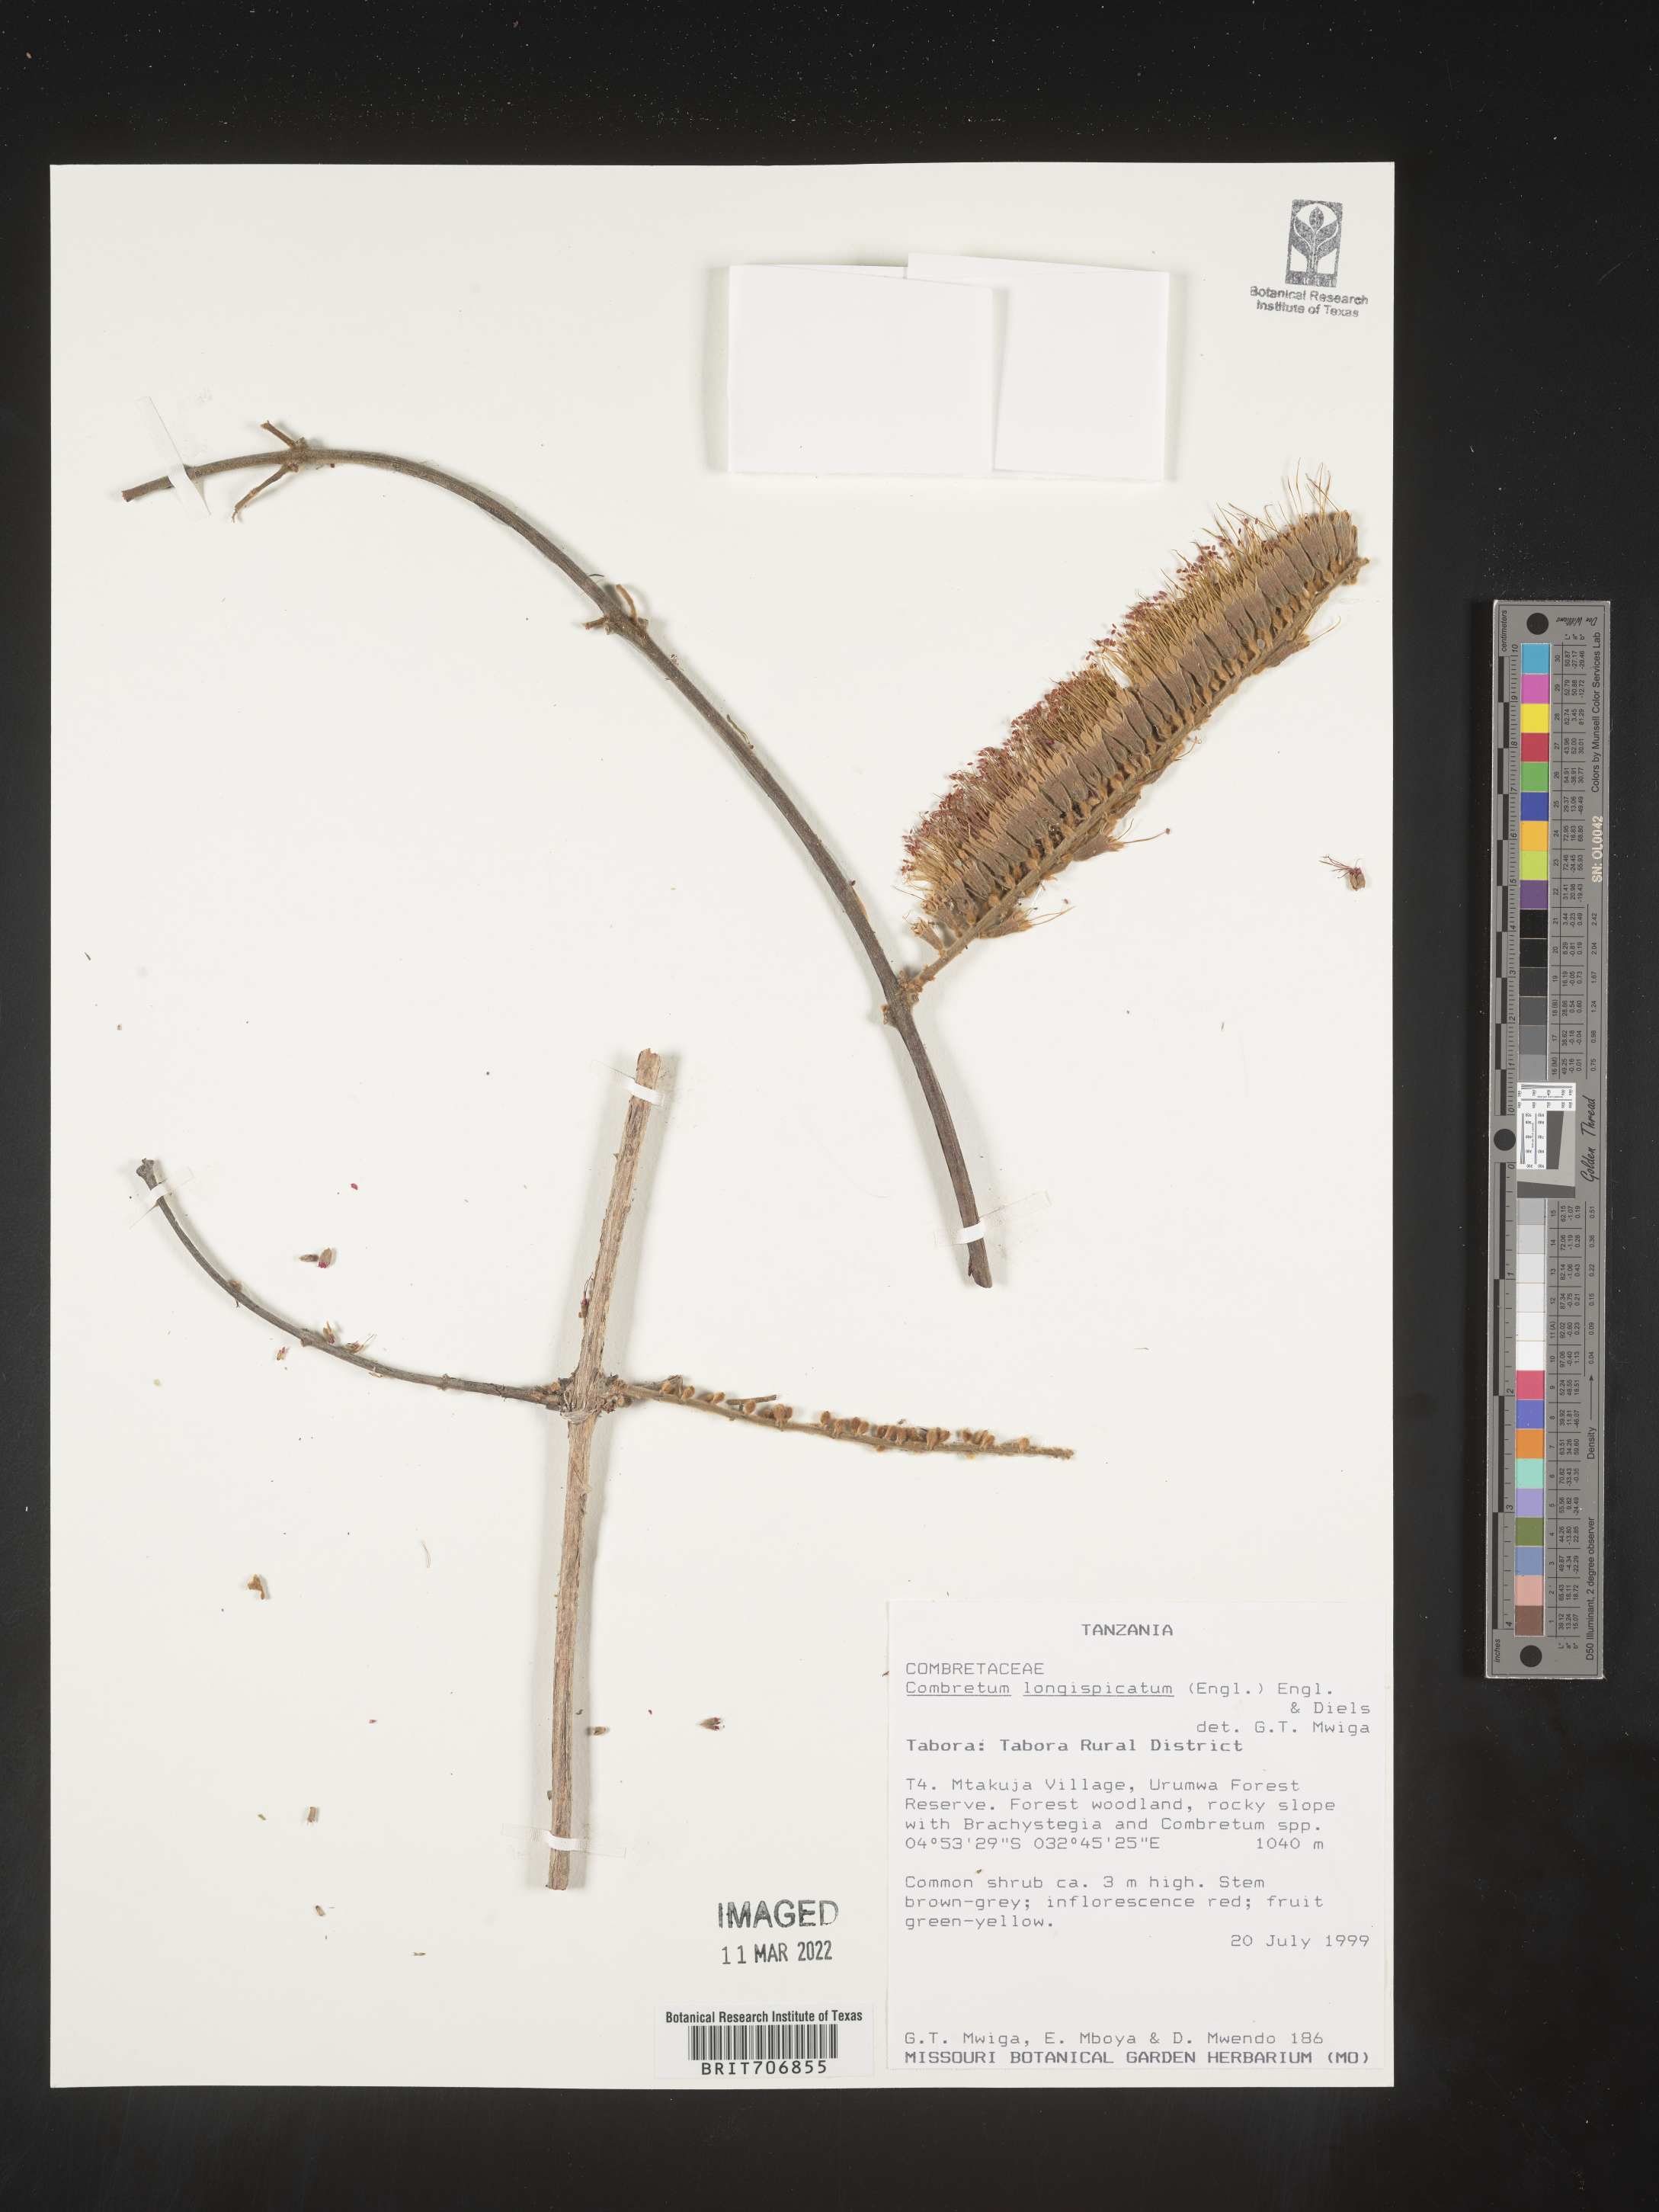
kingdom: Plantae
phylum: Tracheophyta
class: Magnoliopsida
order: Myrtales
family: Combretaceae
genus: Combretum
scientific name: Combretum
